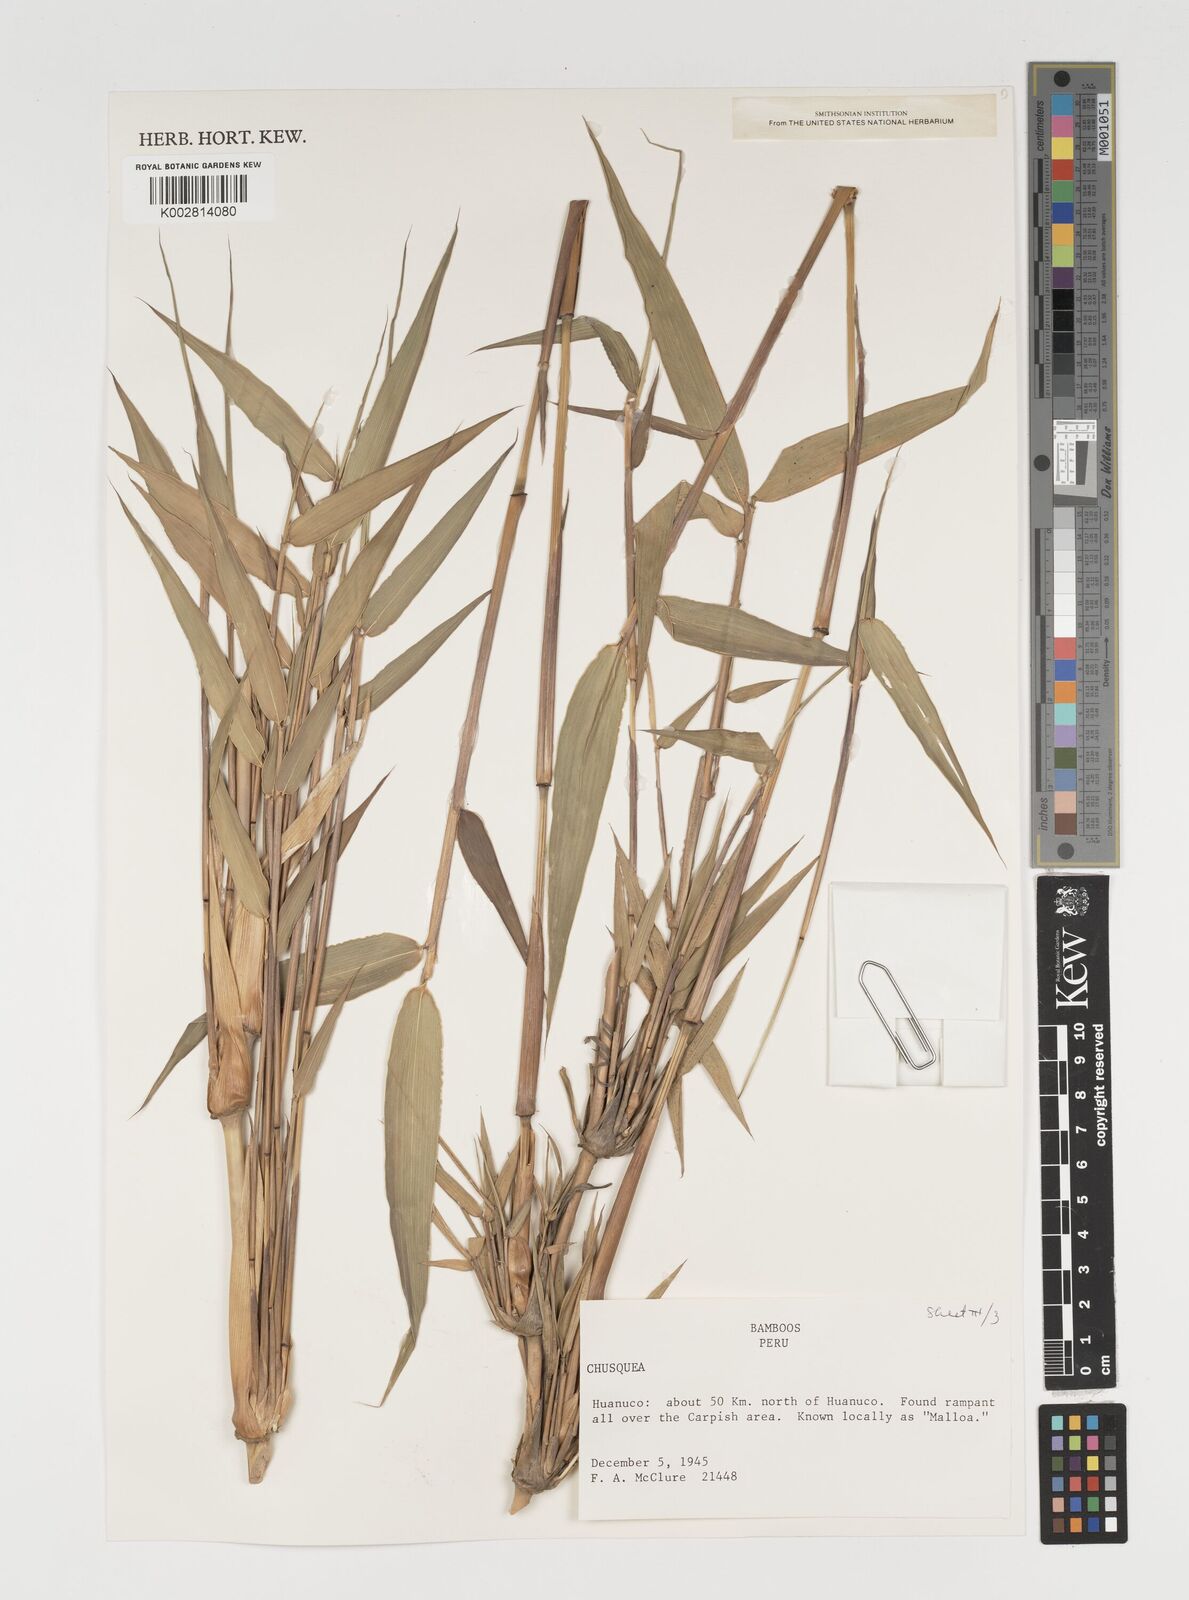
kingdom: Plantae
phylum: Tracheophyta
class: Liliopsida
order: Poales
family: Poaceae
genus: Chusquea
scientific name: Chusquea
